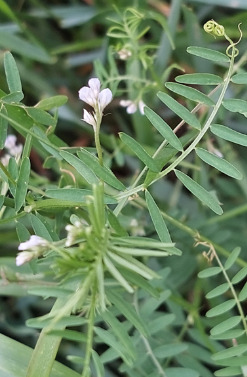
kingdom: Plantae
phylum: Tracheophyta
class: Magnoliopsida
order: Fabales
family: Fabaceae
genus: Vicia
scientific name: Vicia hirsuta
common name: Tofrøet vikke
